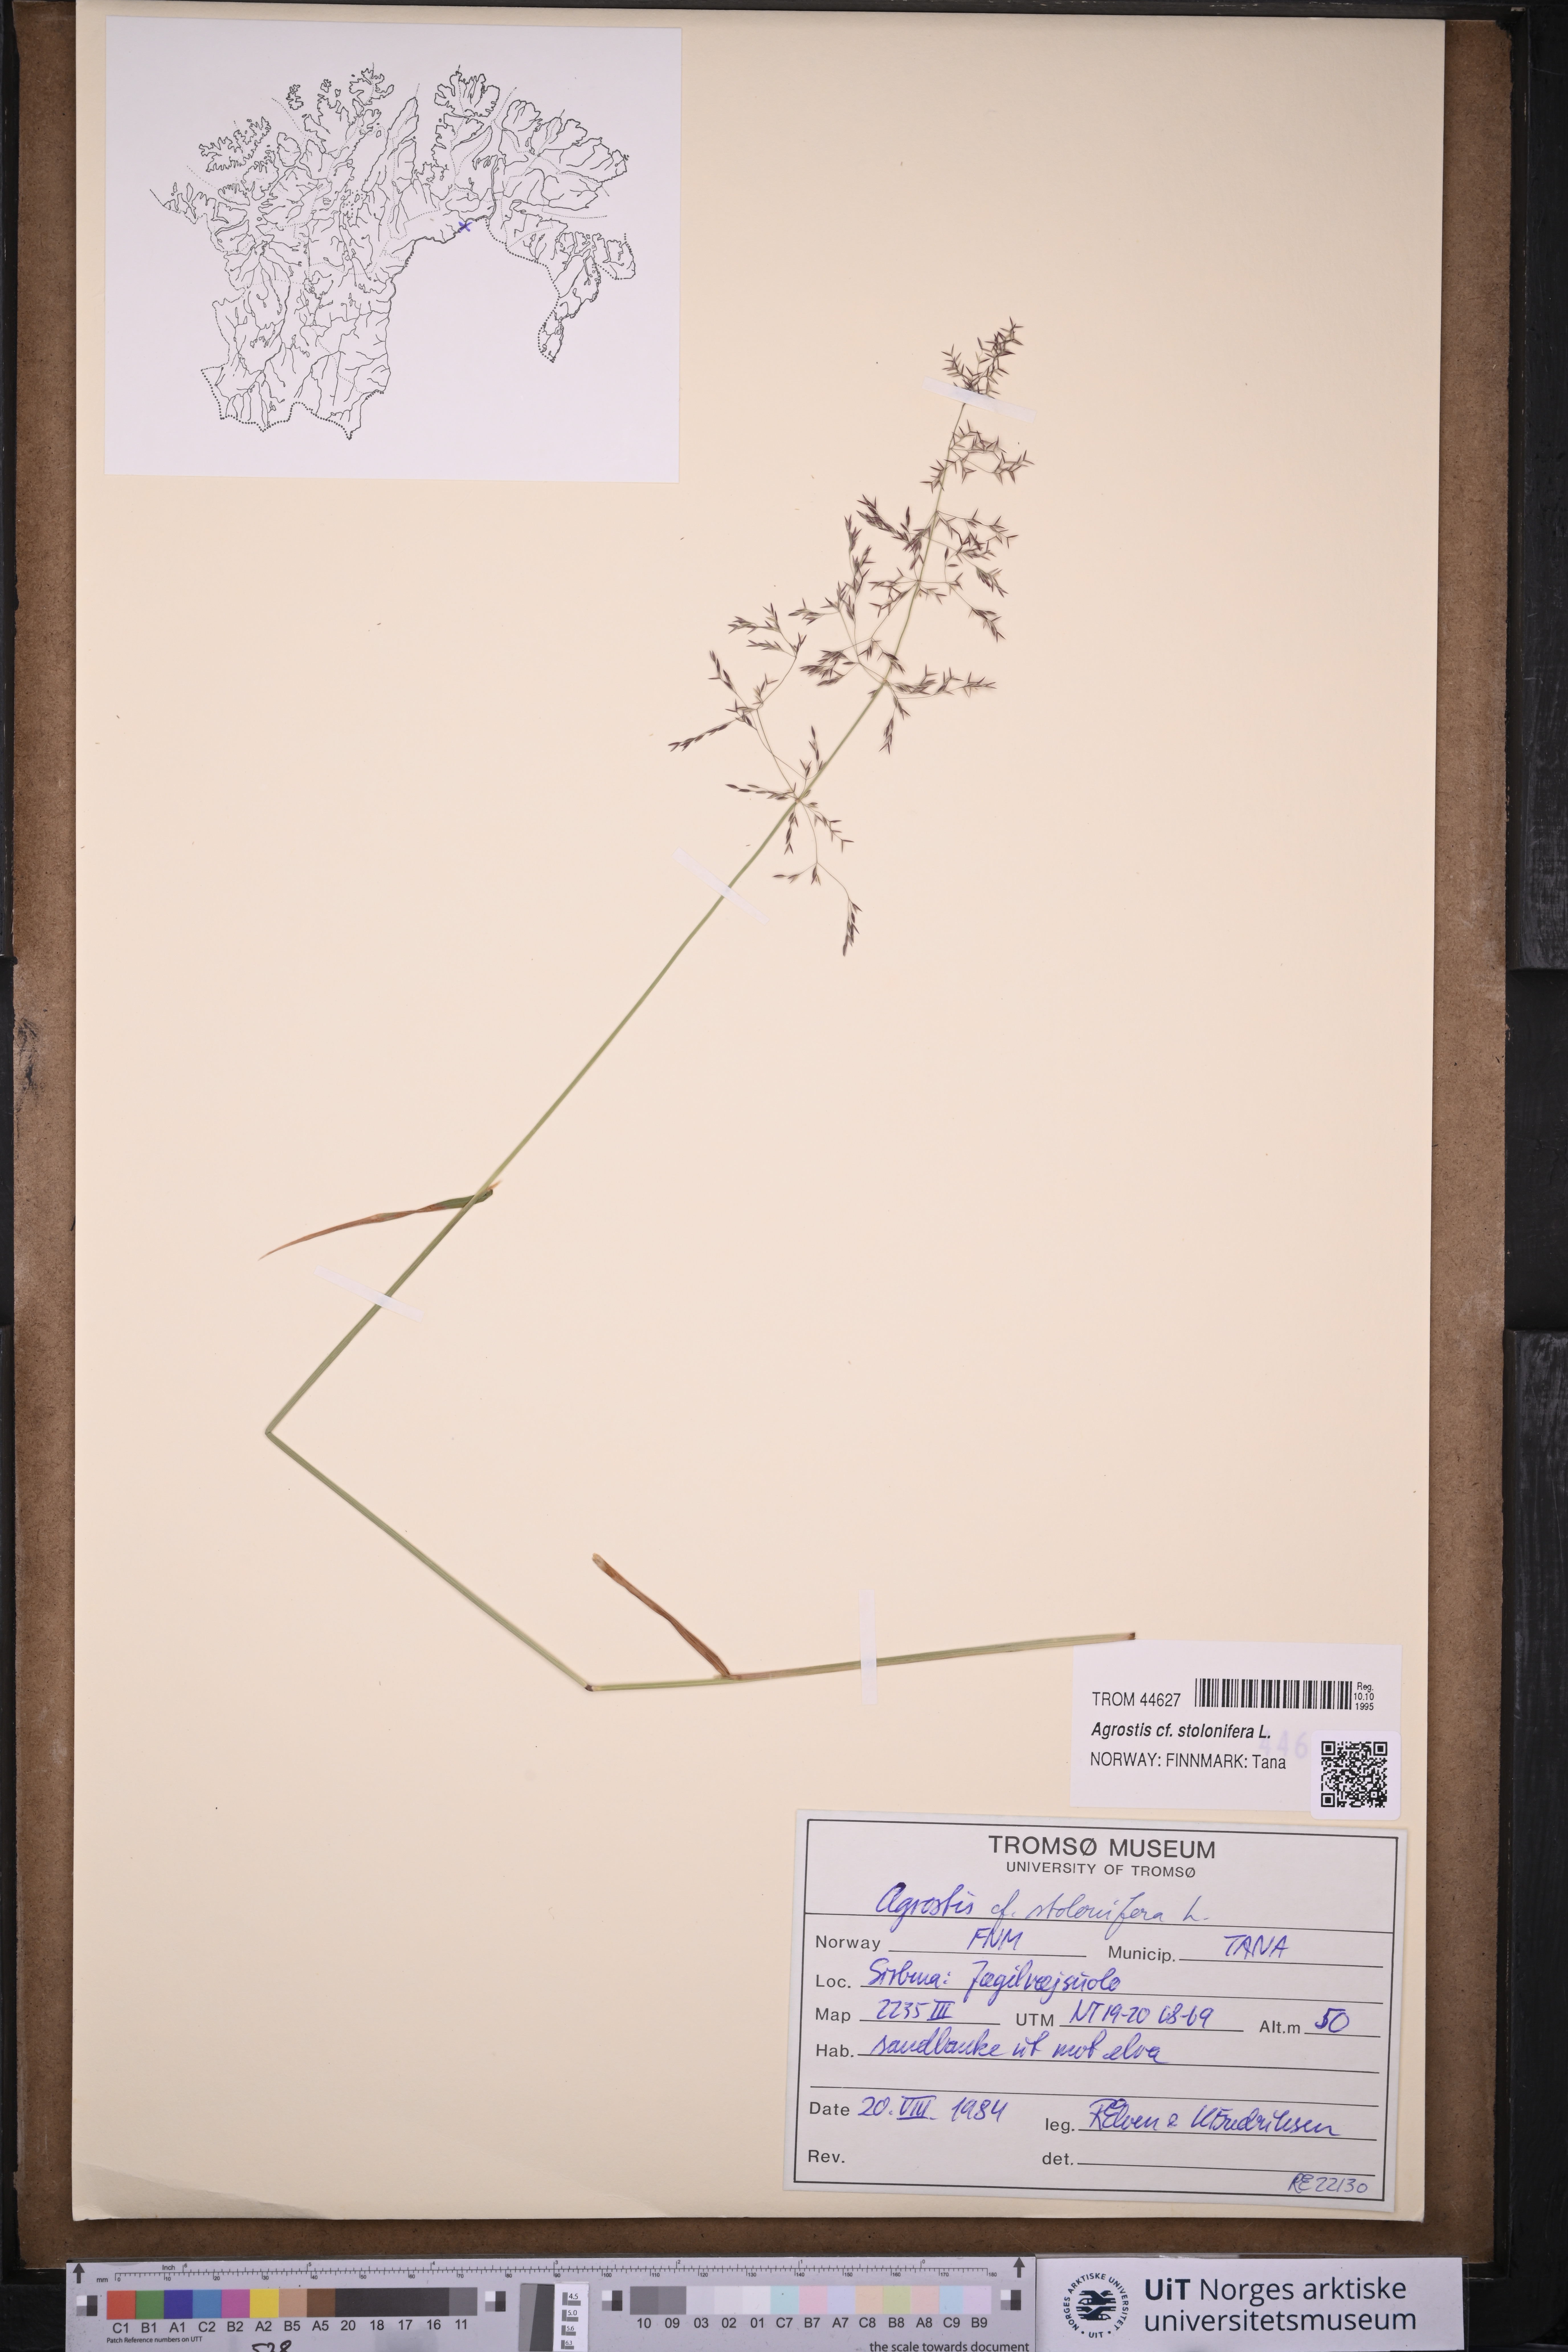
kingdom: Plantae
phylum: Tracheophyta
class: Liliopsida
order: Poales
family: Poaceae
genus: Agrostis
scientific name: Agrostis stolonifera
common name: Creeping bentgrass
